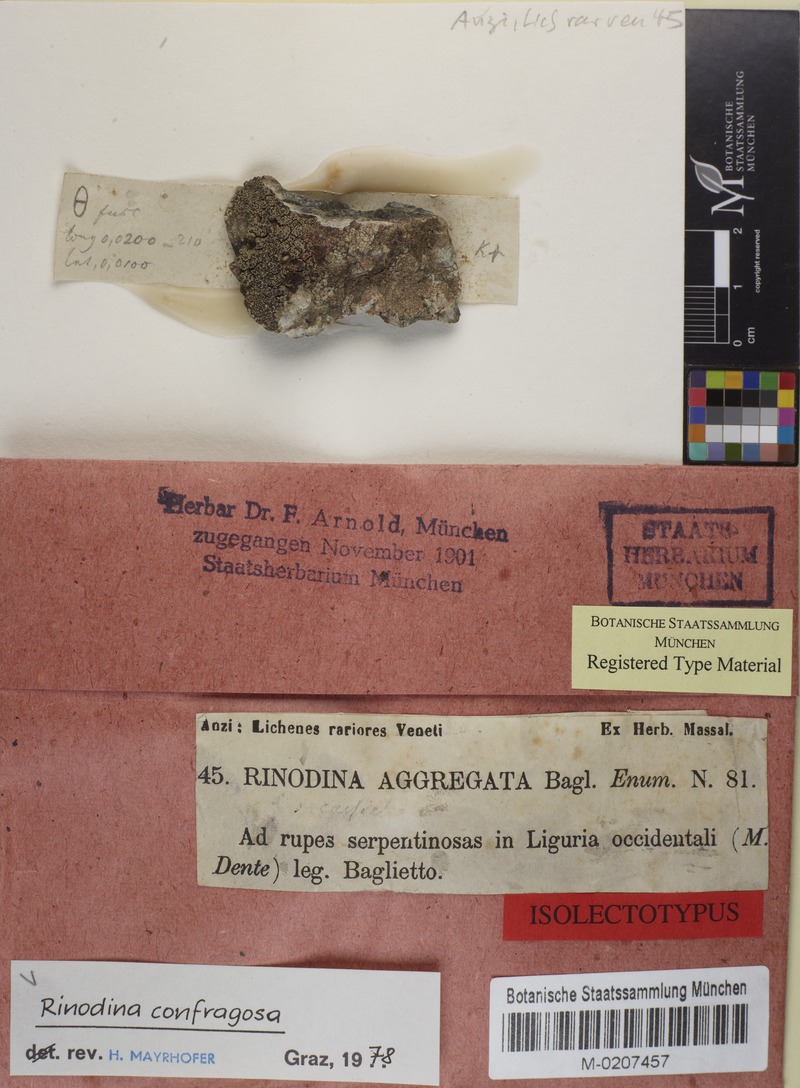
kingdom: Fungi
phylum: Ascomycota
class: Lecanoromycetes
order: Caliciales
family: Physciaceae
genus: Rinodina
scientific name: Rinodina confragosa
